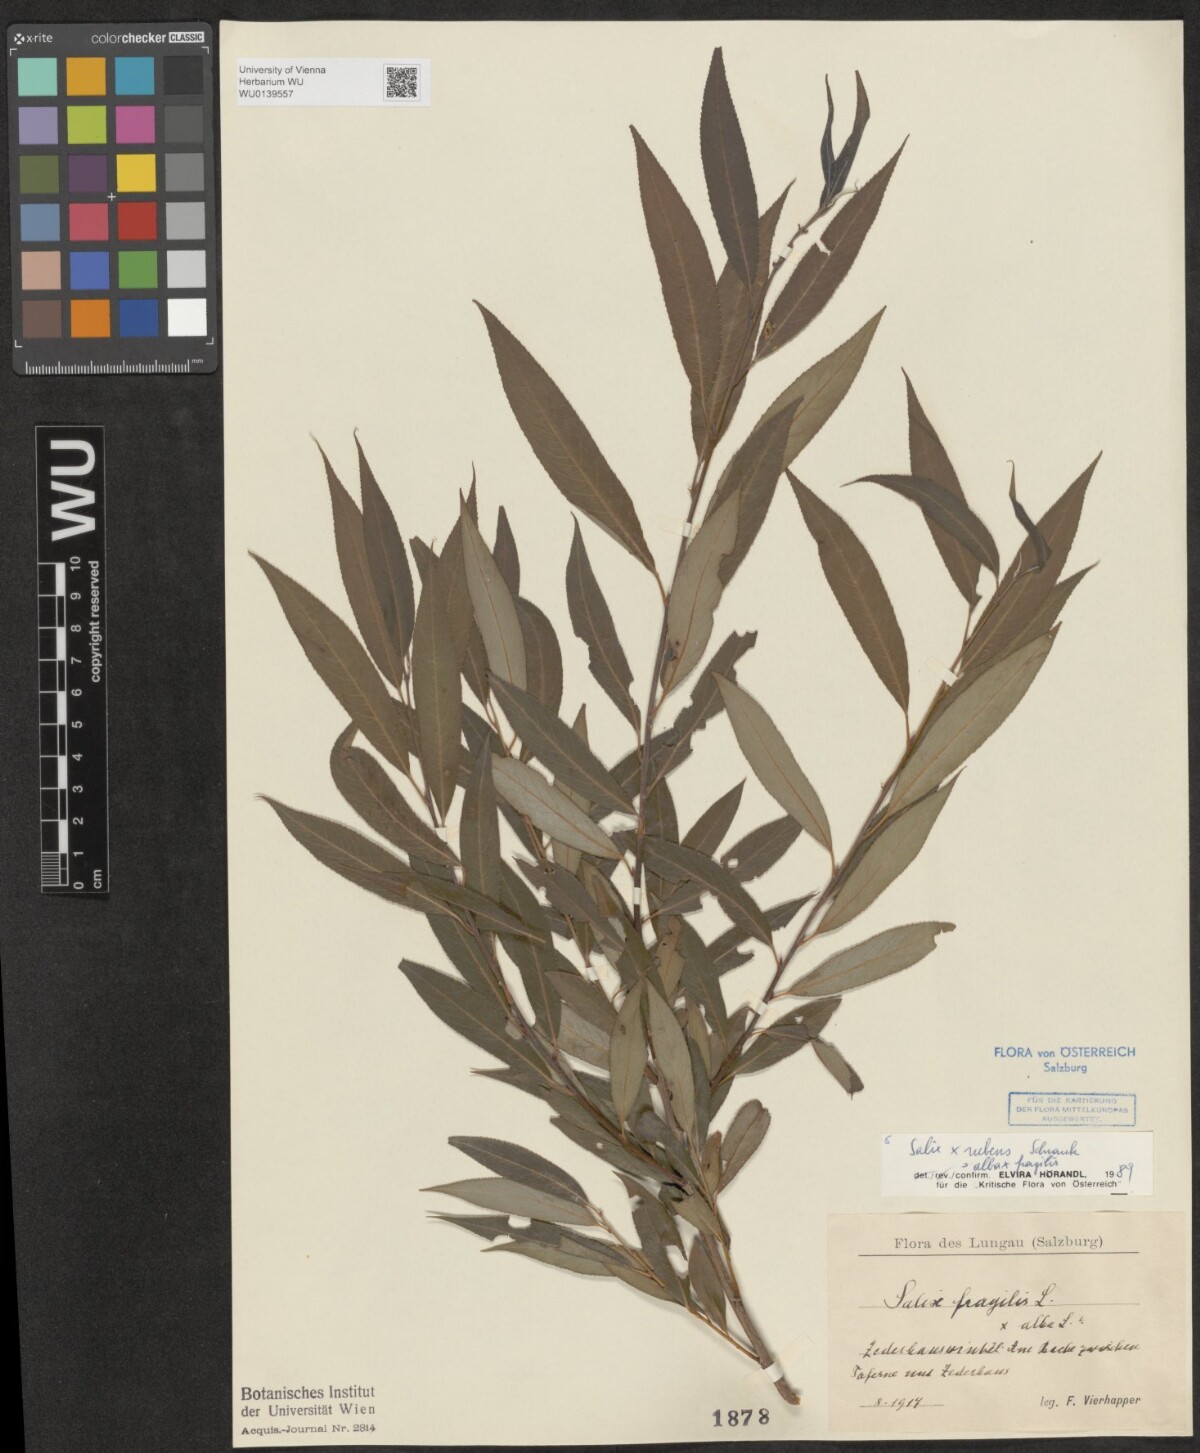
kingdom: Plantae
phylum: Tracheophyta
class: Magnoliopsida
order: Malpighiales
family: Salicaceae
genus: Salix
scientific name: Salix rubens
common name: Hybrid crack willow
